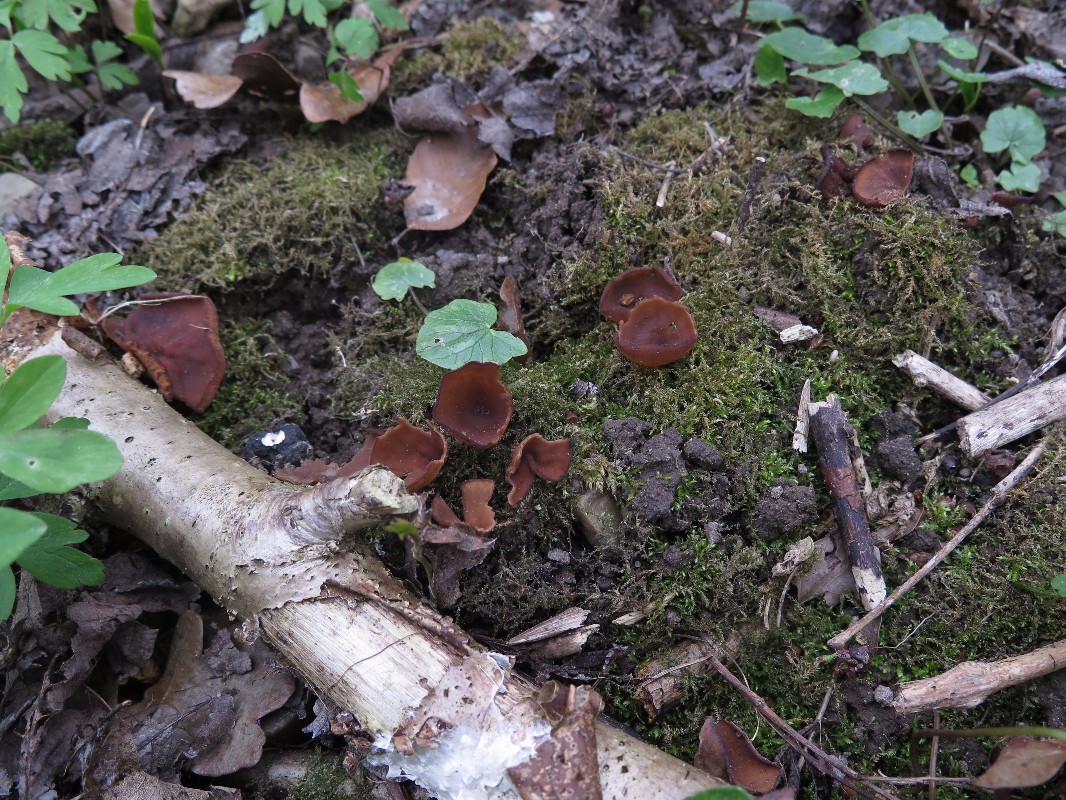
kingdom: Fungi
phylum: Ascomycota
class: Leotiomycetes
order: Helotiales
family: Sclerotiniaceae
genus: Dumontinia
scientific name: Dumontinia tuberosa
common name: anemone-knoldskive
